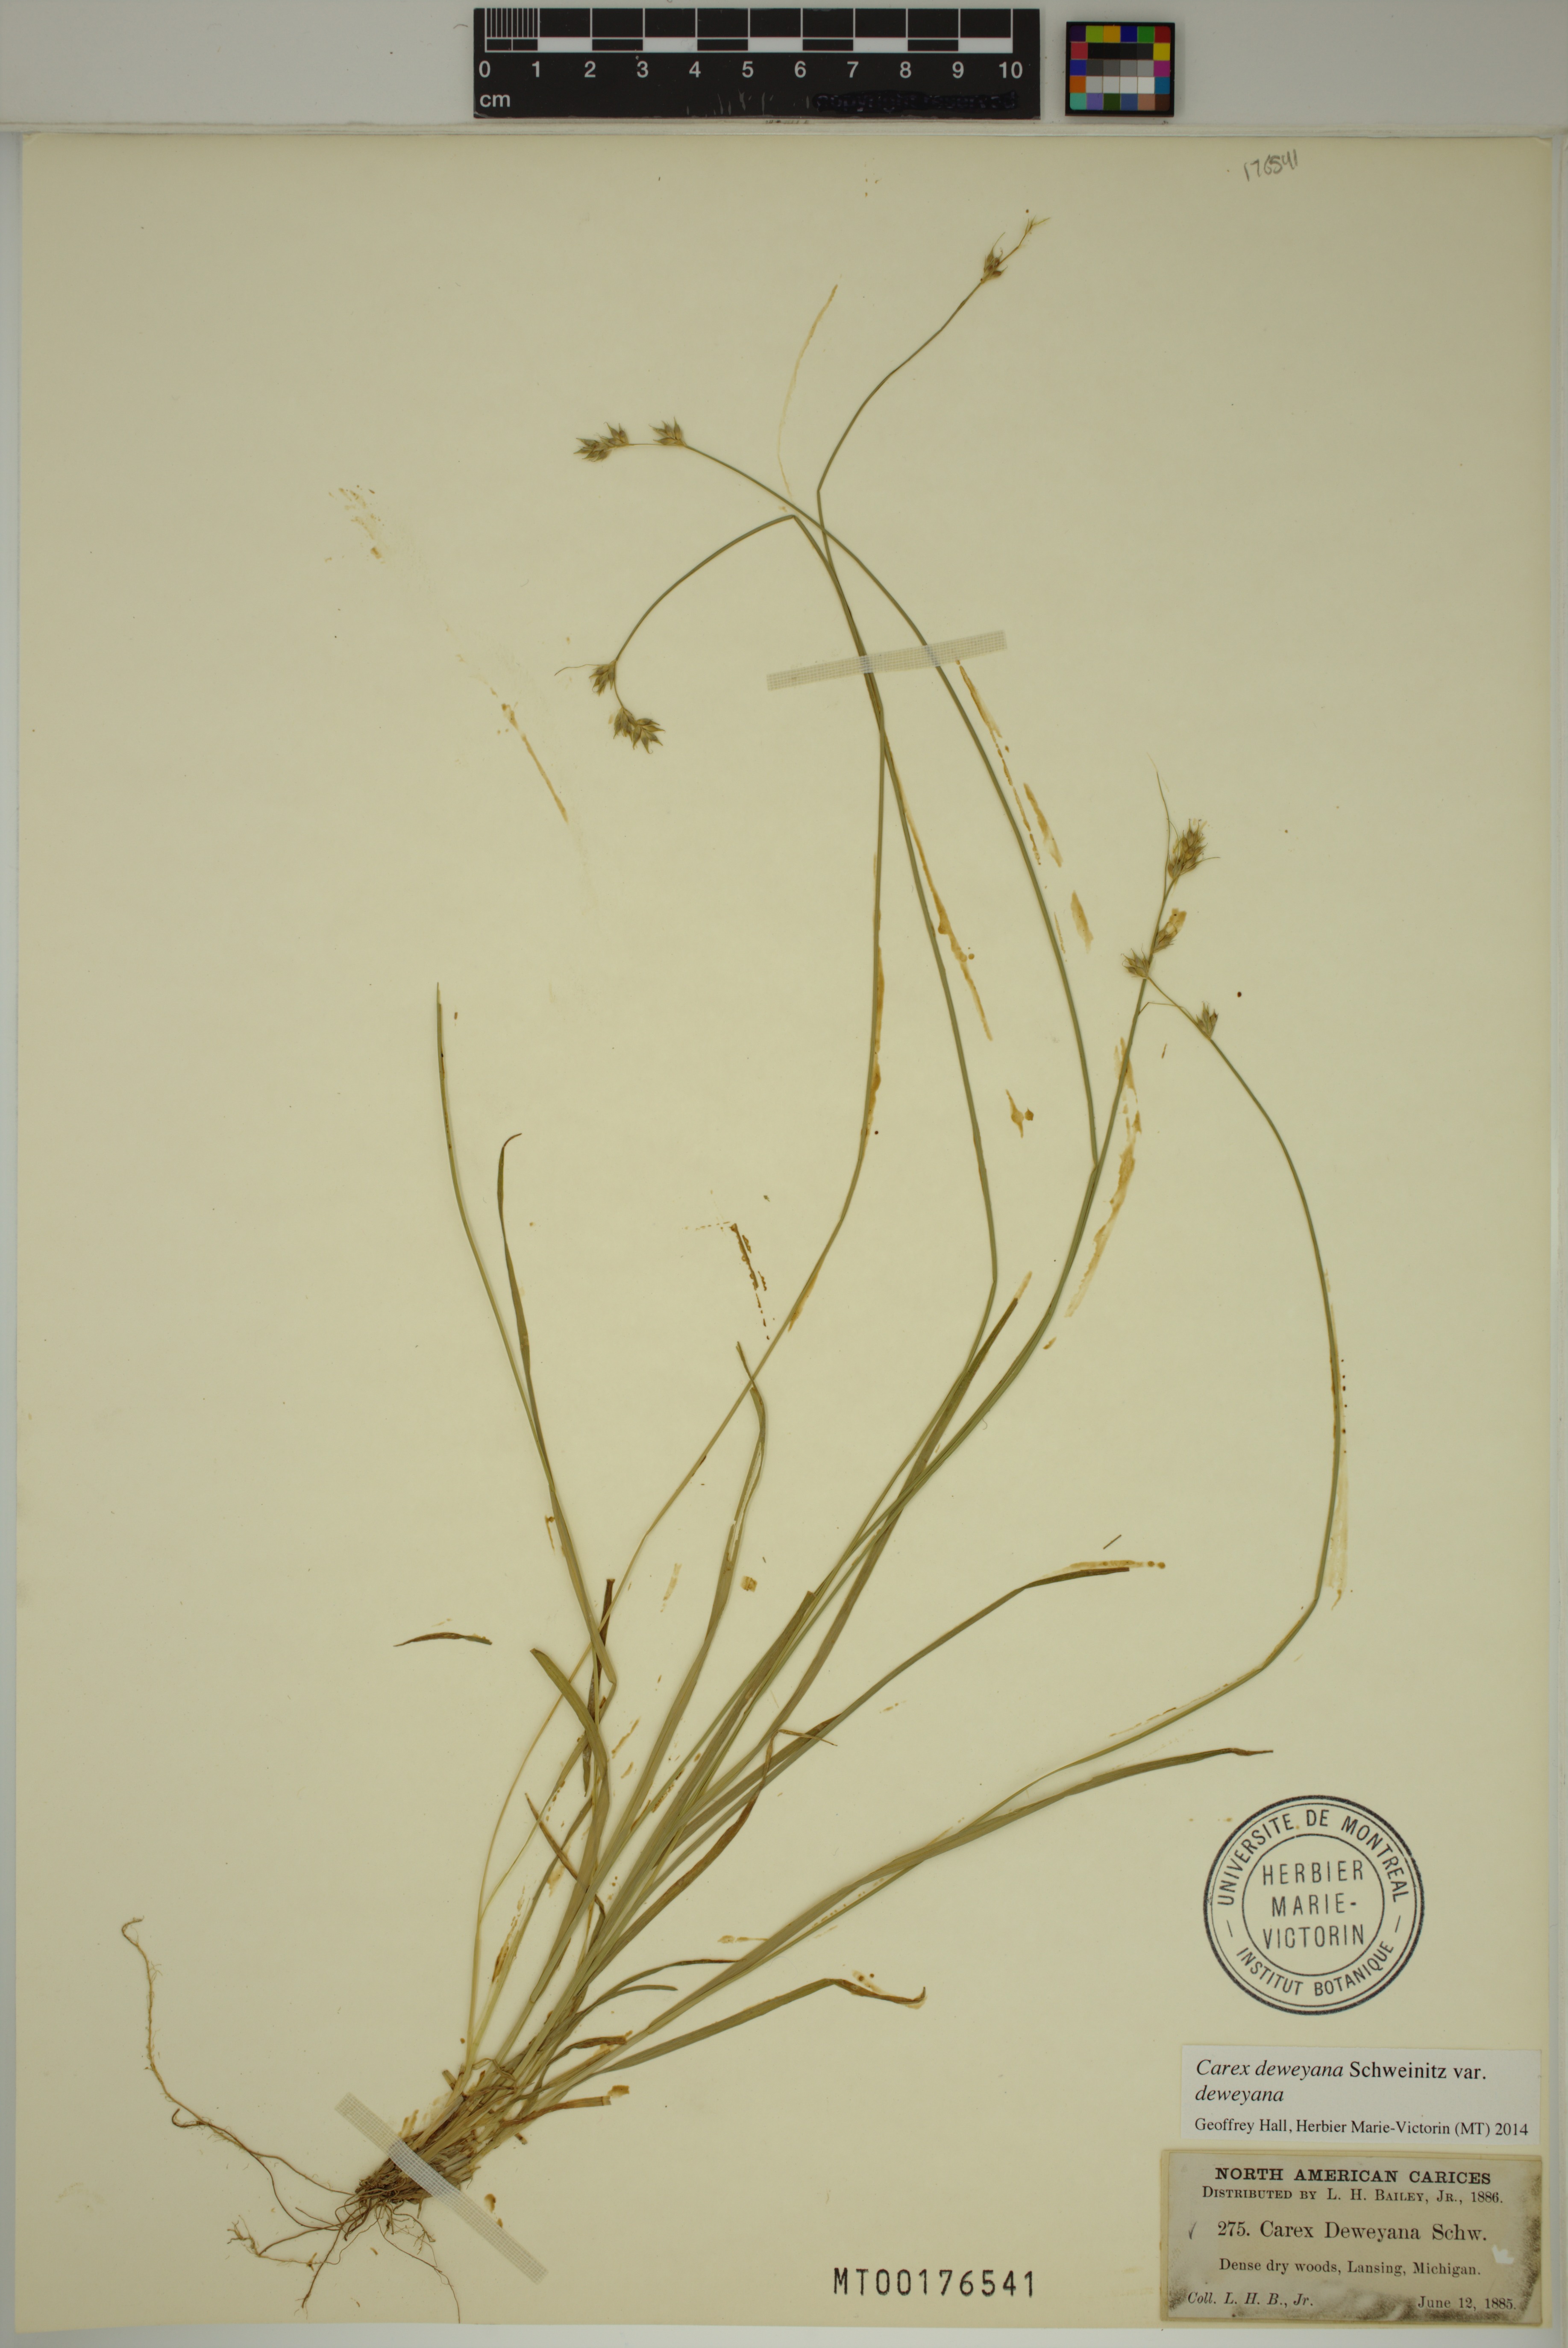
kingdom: Plantae
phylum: Tracheophyta
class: Liliopsida
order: Poales
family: Cyperaceae
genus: Carex
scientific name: Carex deweyana
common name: Dewey's sedge
